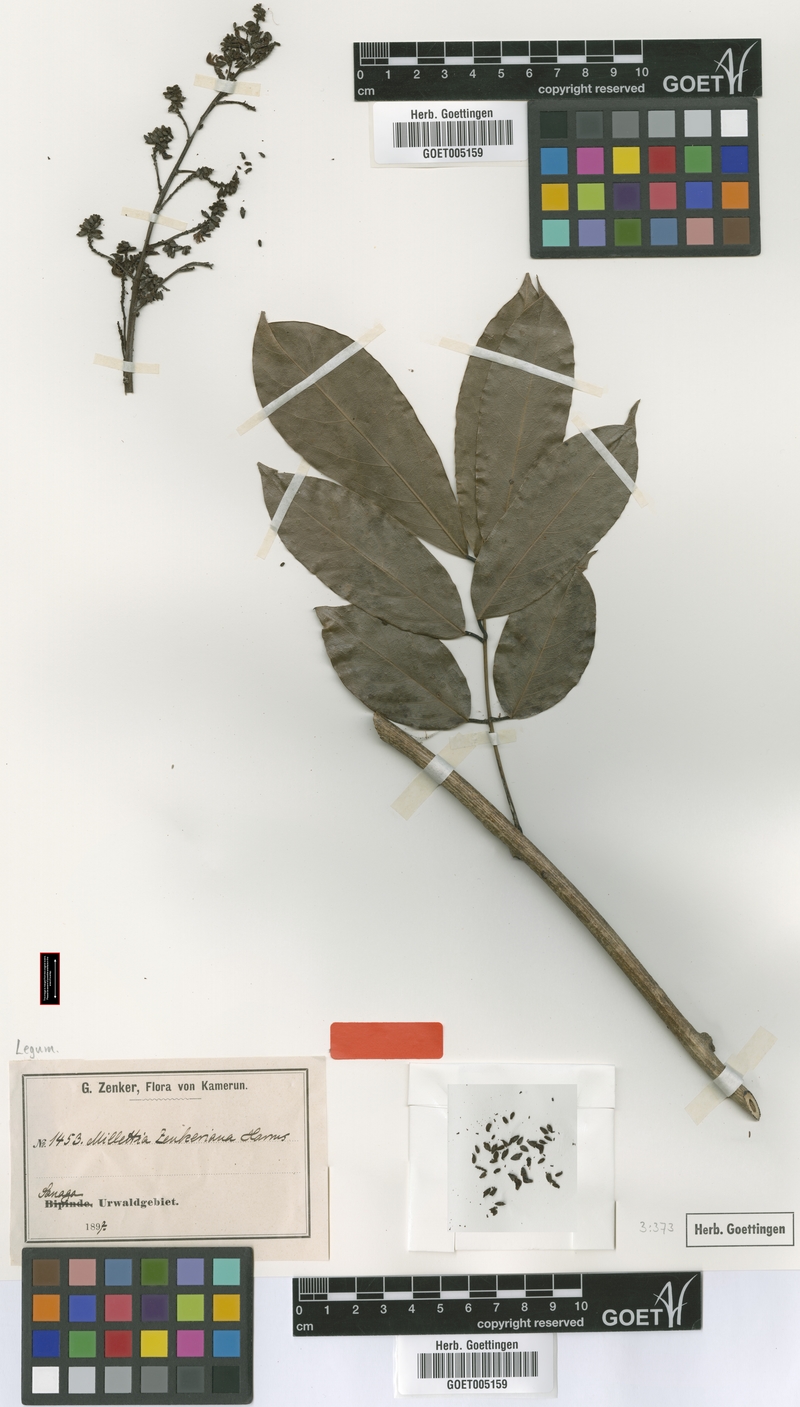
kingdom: Plantae
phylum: Tracheophyta
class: Magnoliopsida
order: Fabales
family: Fabaceae
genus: Ostryocarpus
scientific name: Ostryocarpus zenkerianus
